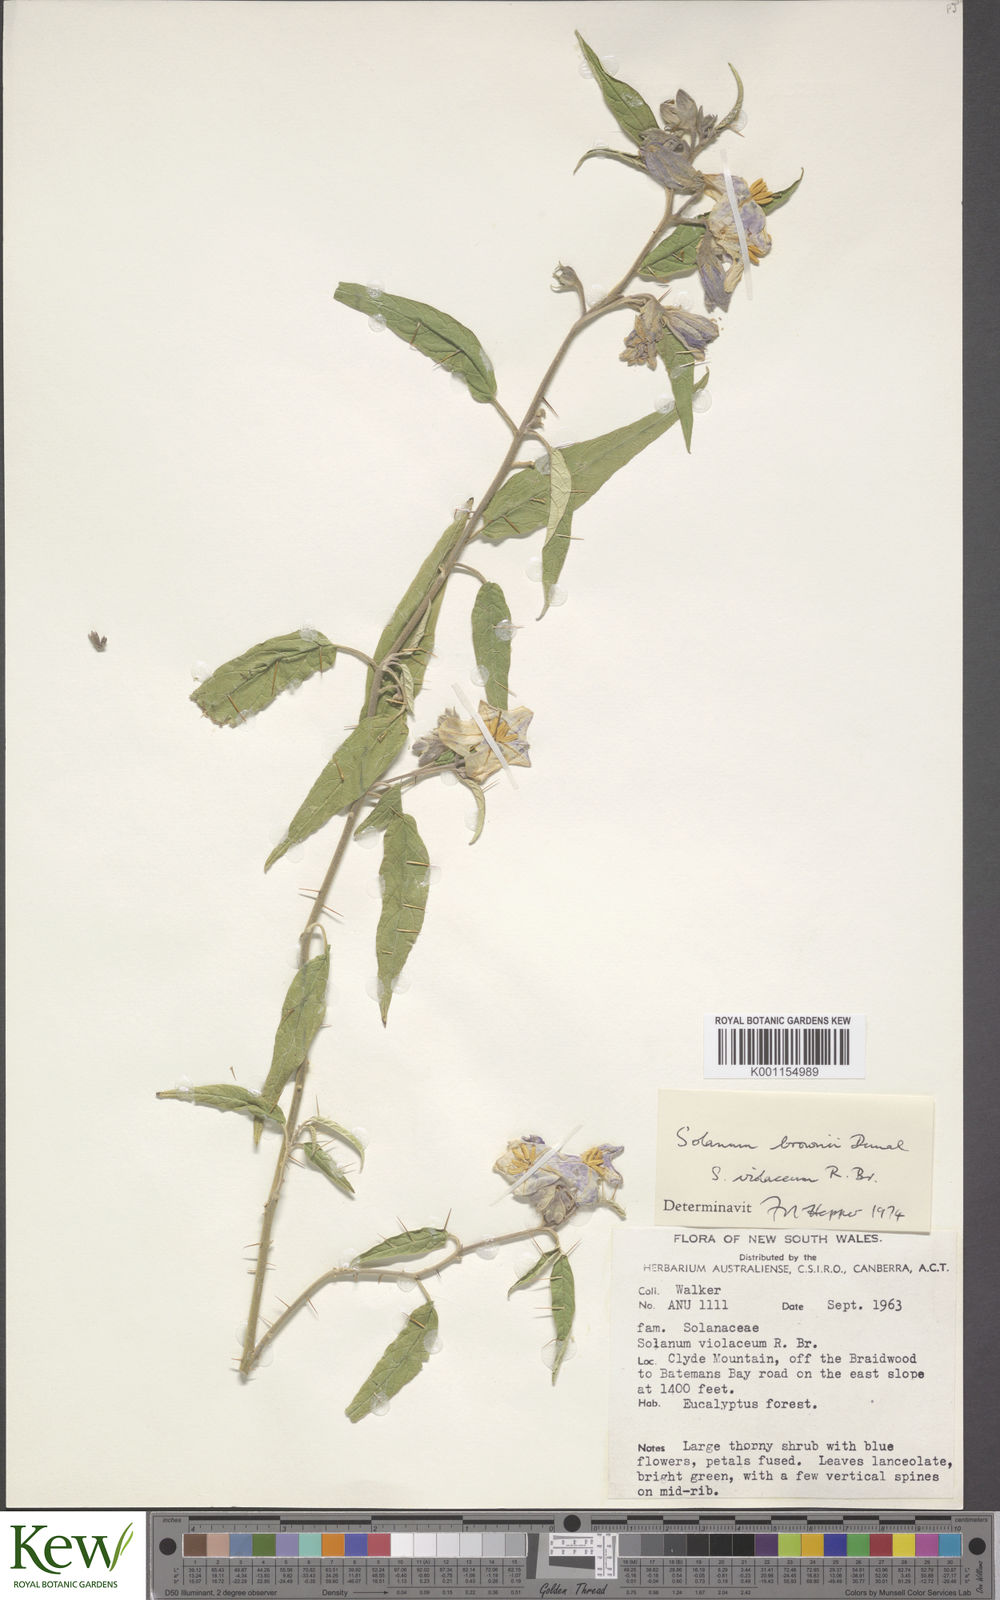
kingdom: Plantae
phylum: Tracheophyta
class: Magnoliopsida
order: Solanales
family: Solanaceae
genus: Solanum
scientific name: Solanum brownii
